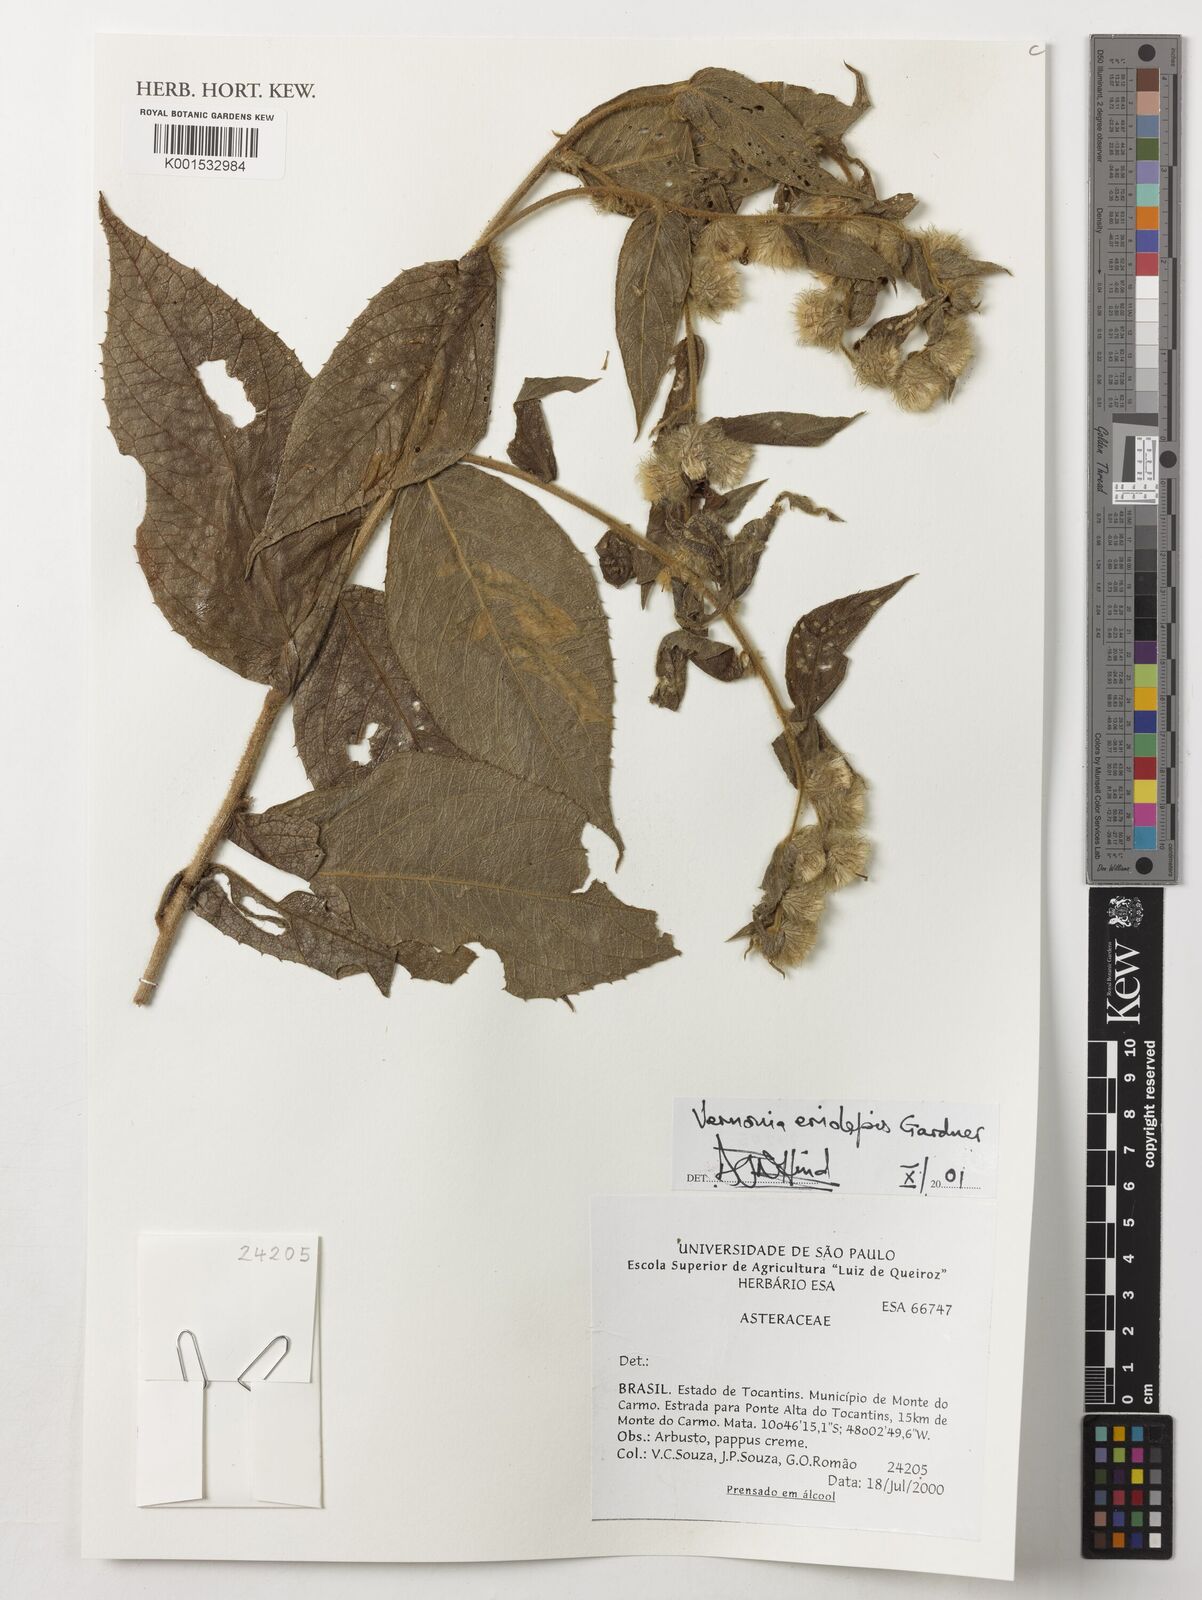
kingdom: Plantae
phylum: Tracheophyta
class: Magnoliopsida
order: Asterales
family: Asteraceae
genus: Lepidaploa
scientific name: Lepidaploa eriolepis
